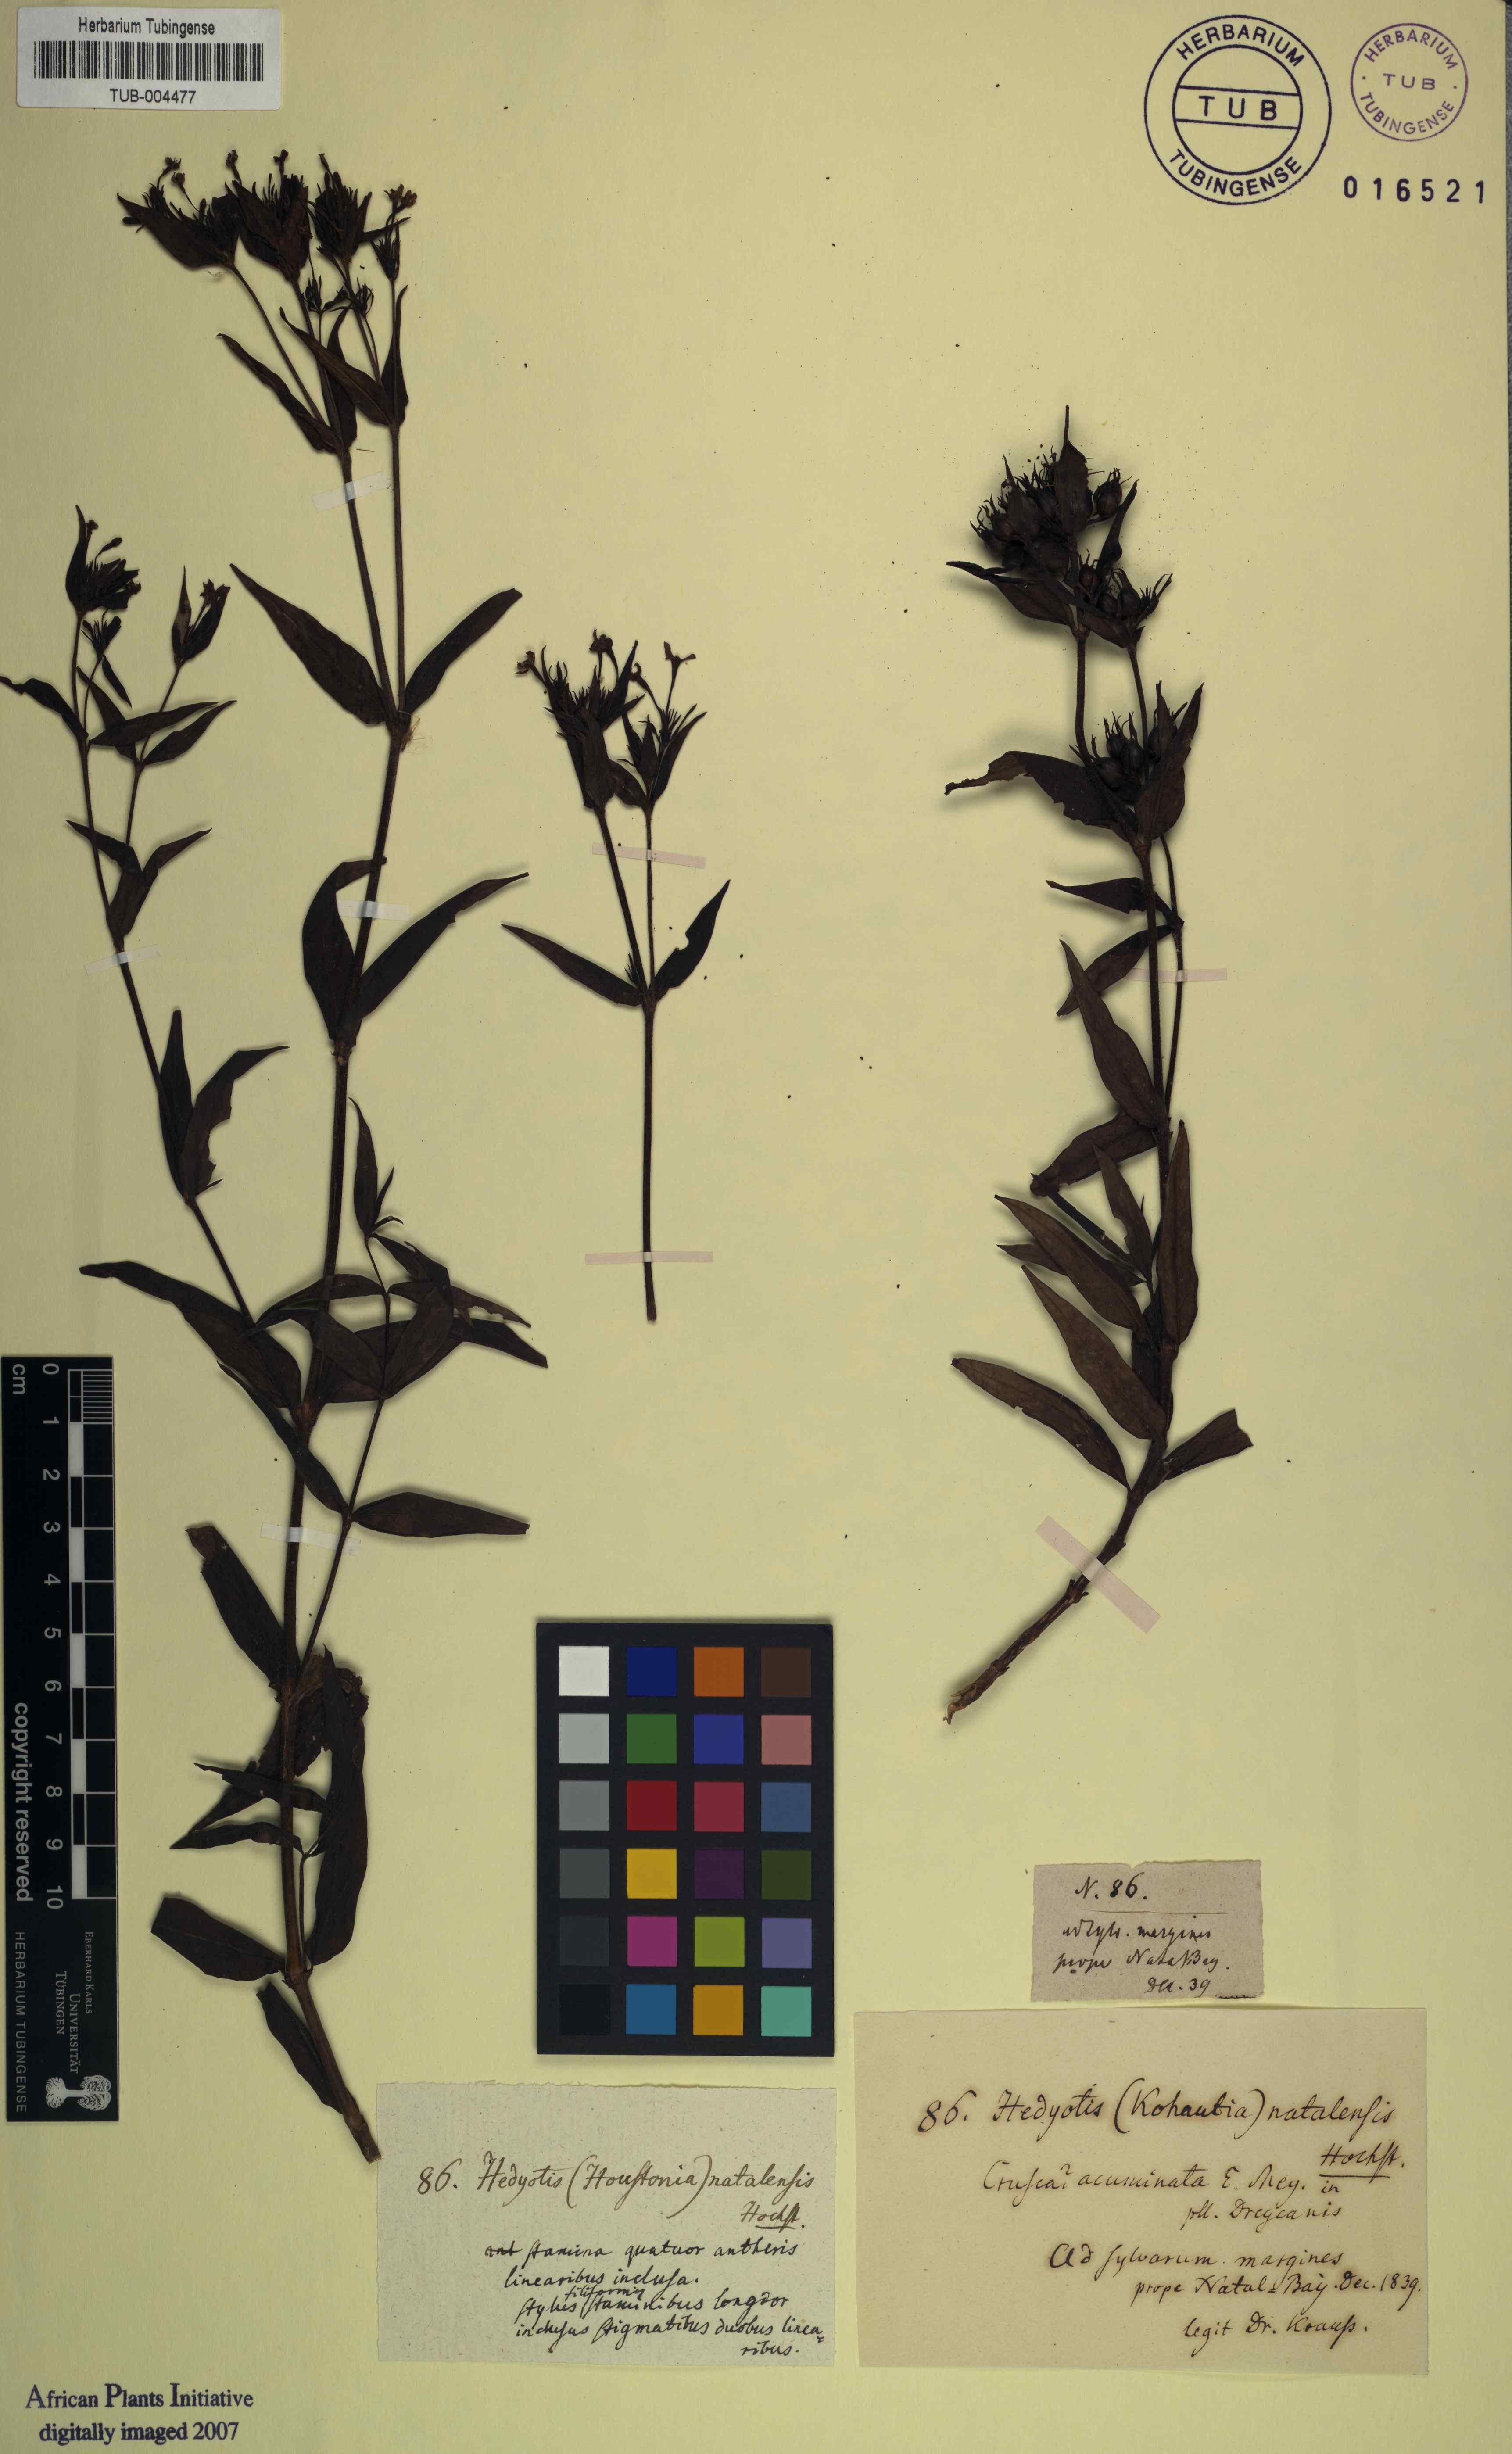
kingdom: Plantae
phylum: Tracheophyta
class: Magnoliopsida
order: Gentianales
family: Rubiaceae
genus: Conostomium
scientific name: Conostomium natalense
